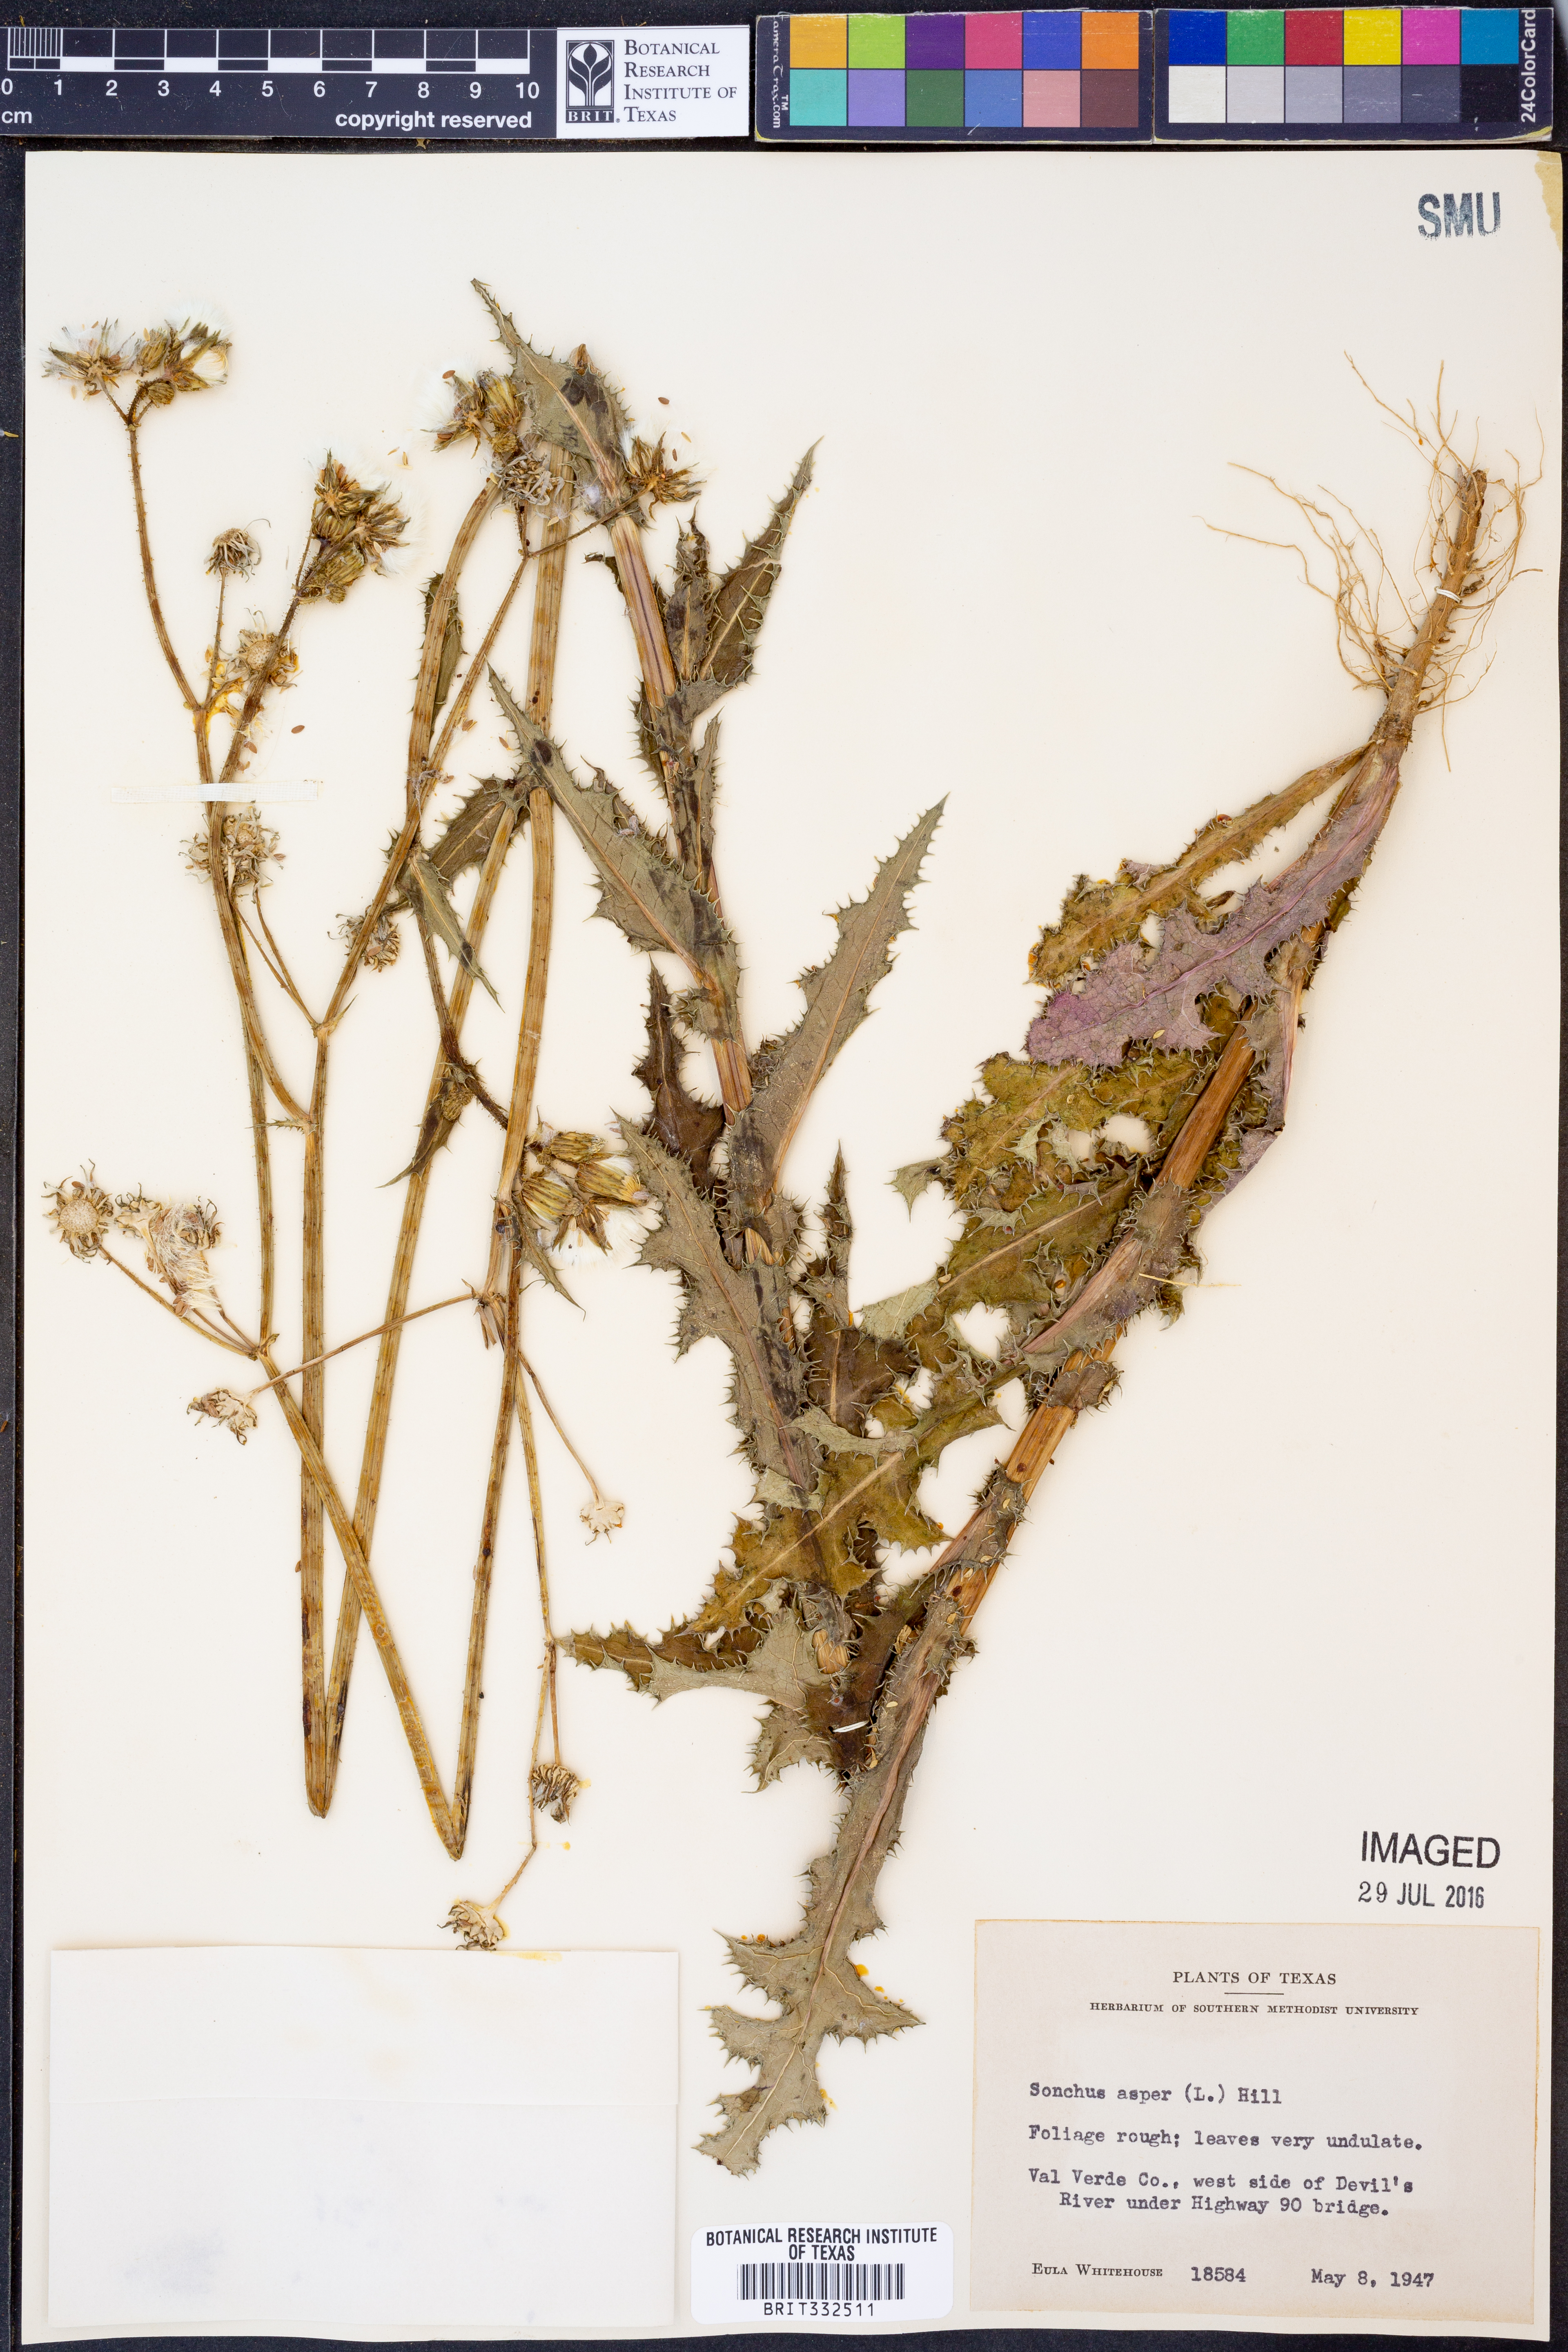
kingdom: Plantae
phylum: Tracheophyta
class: Magnoliopsida
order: Asterales
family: Asteraceae
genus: Sonchus
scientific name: Sonchus asper
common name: Prickly sow-thistle
